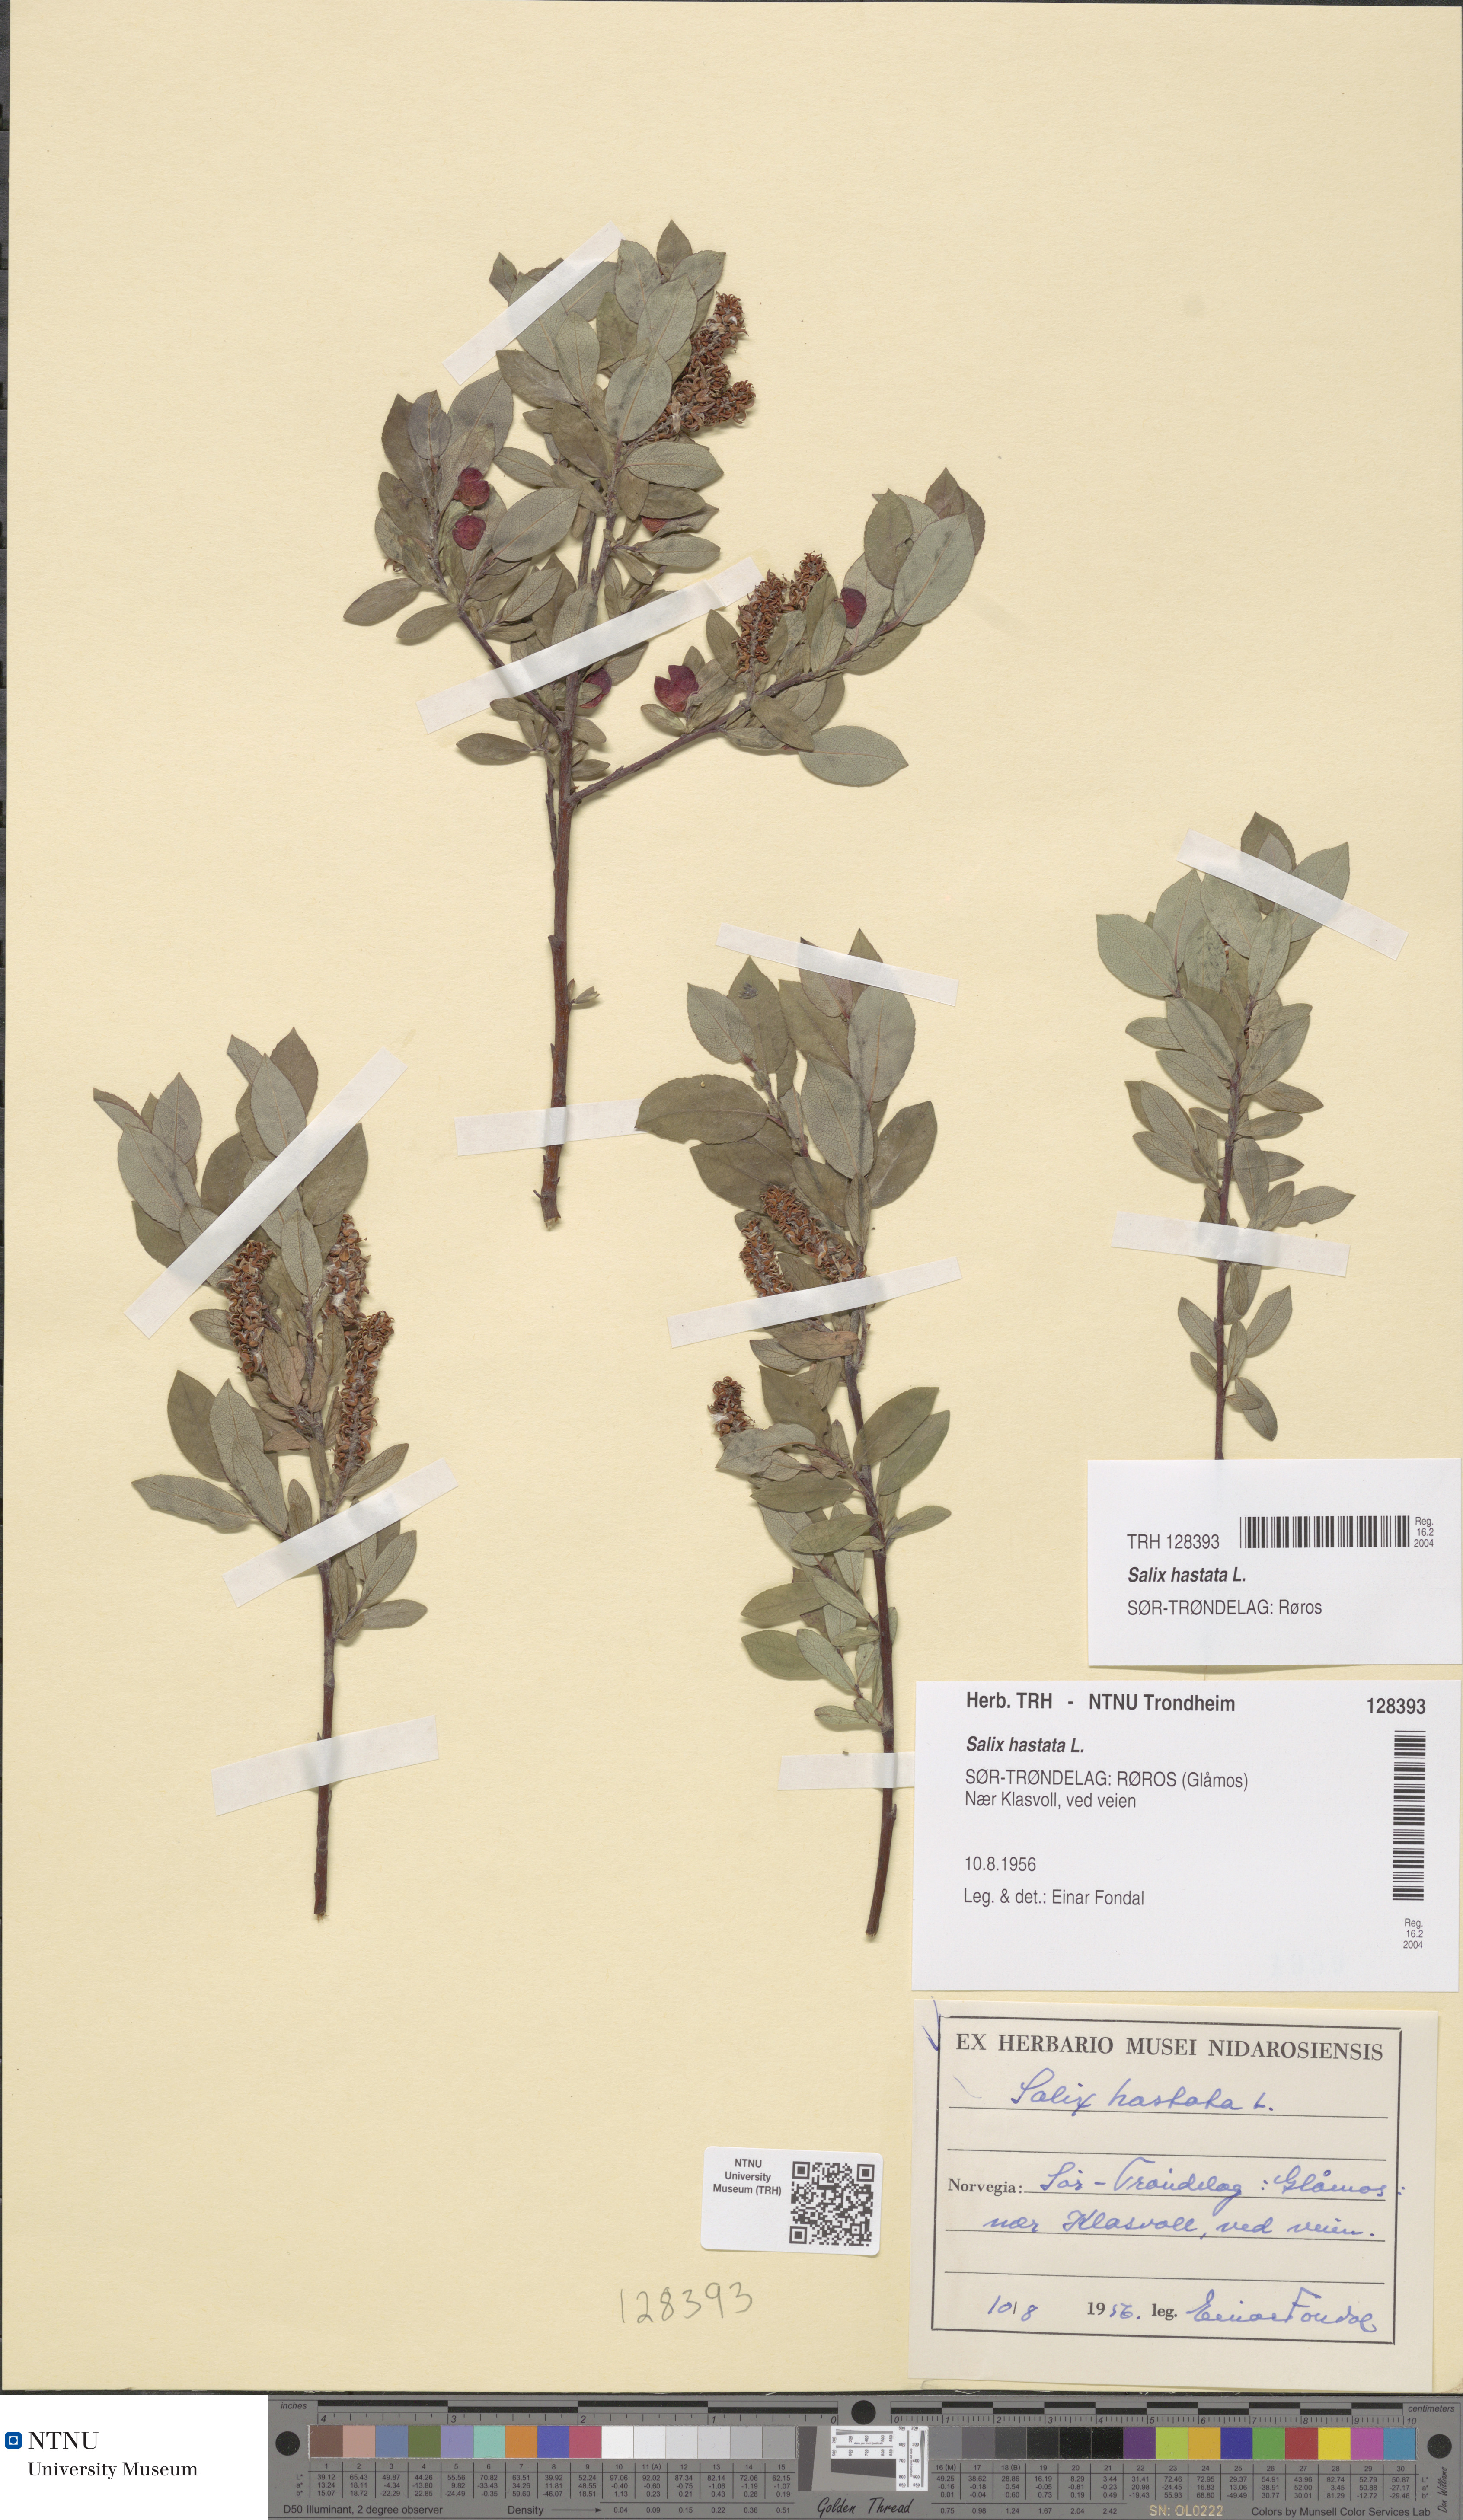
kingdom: Plantae
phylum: Tracheophyta
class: Magnoliopsida
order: Malpighiales
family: Salicaceae
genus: Salix
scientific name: Salix hastata
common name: Halberd willow
